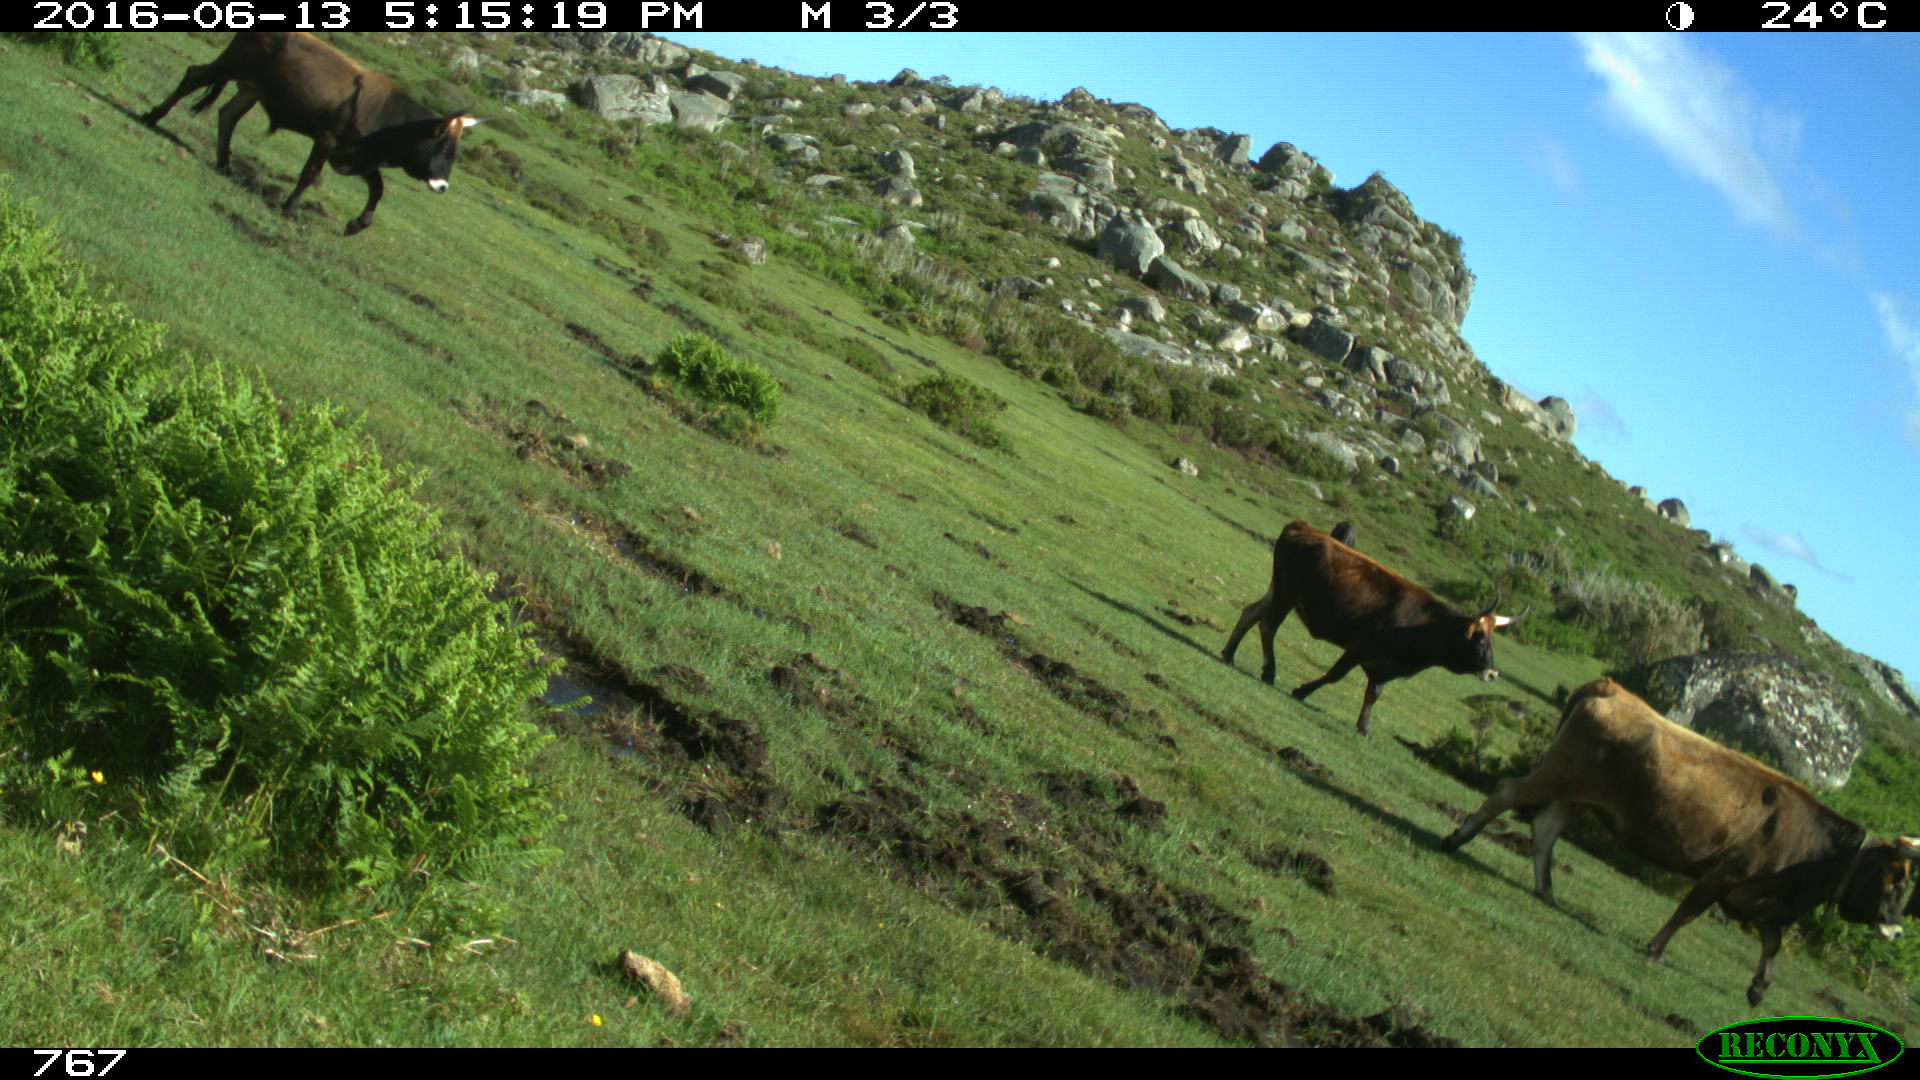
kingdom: Animalia
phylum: Chordata
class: Mammalia
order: Artiodactyla
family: Bovidae
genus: Bos
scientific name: Bos taurus
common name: Domesticated cattle
